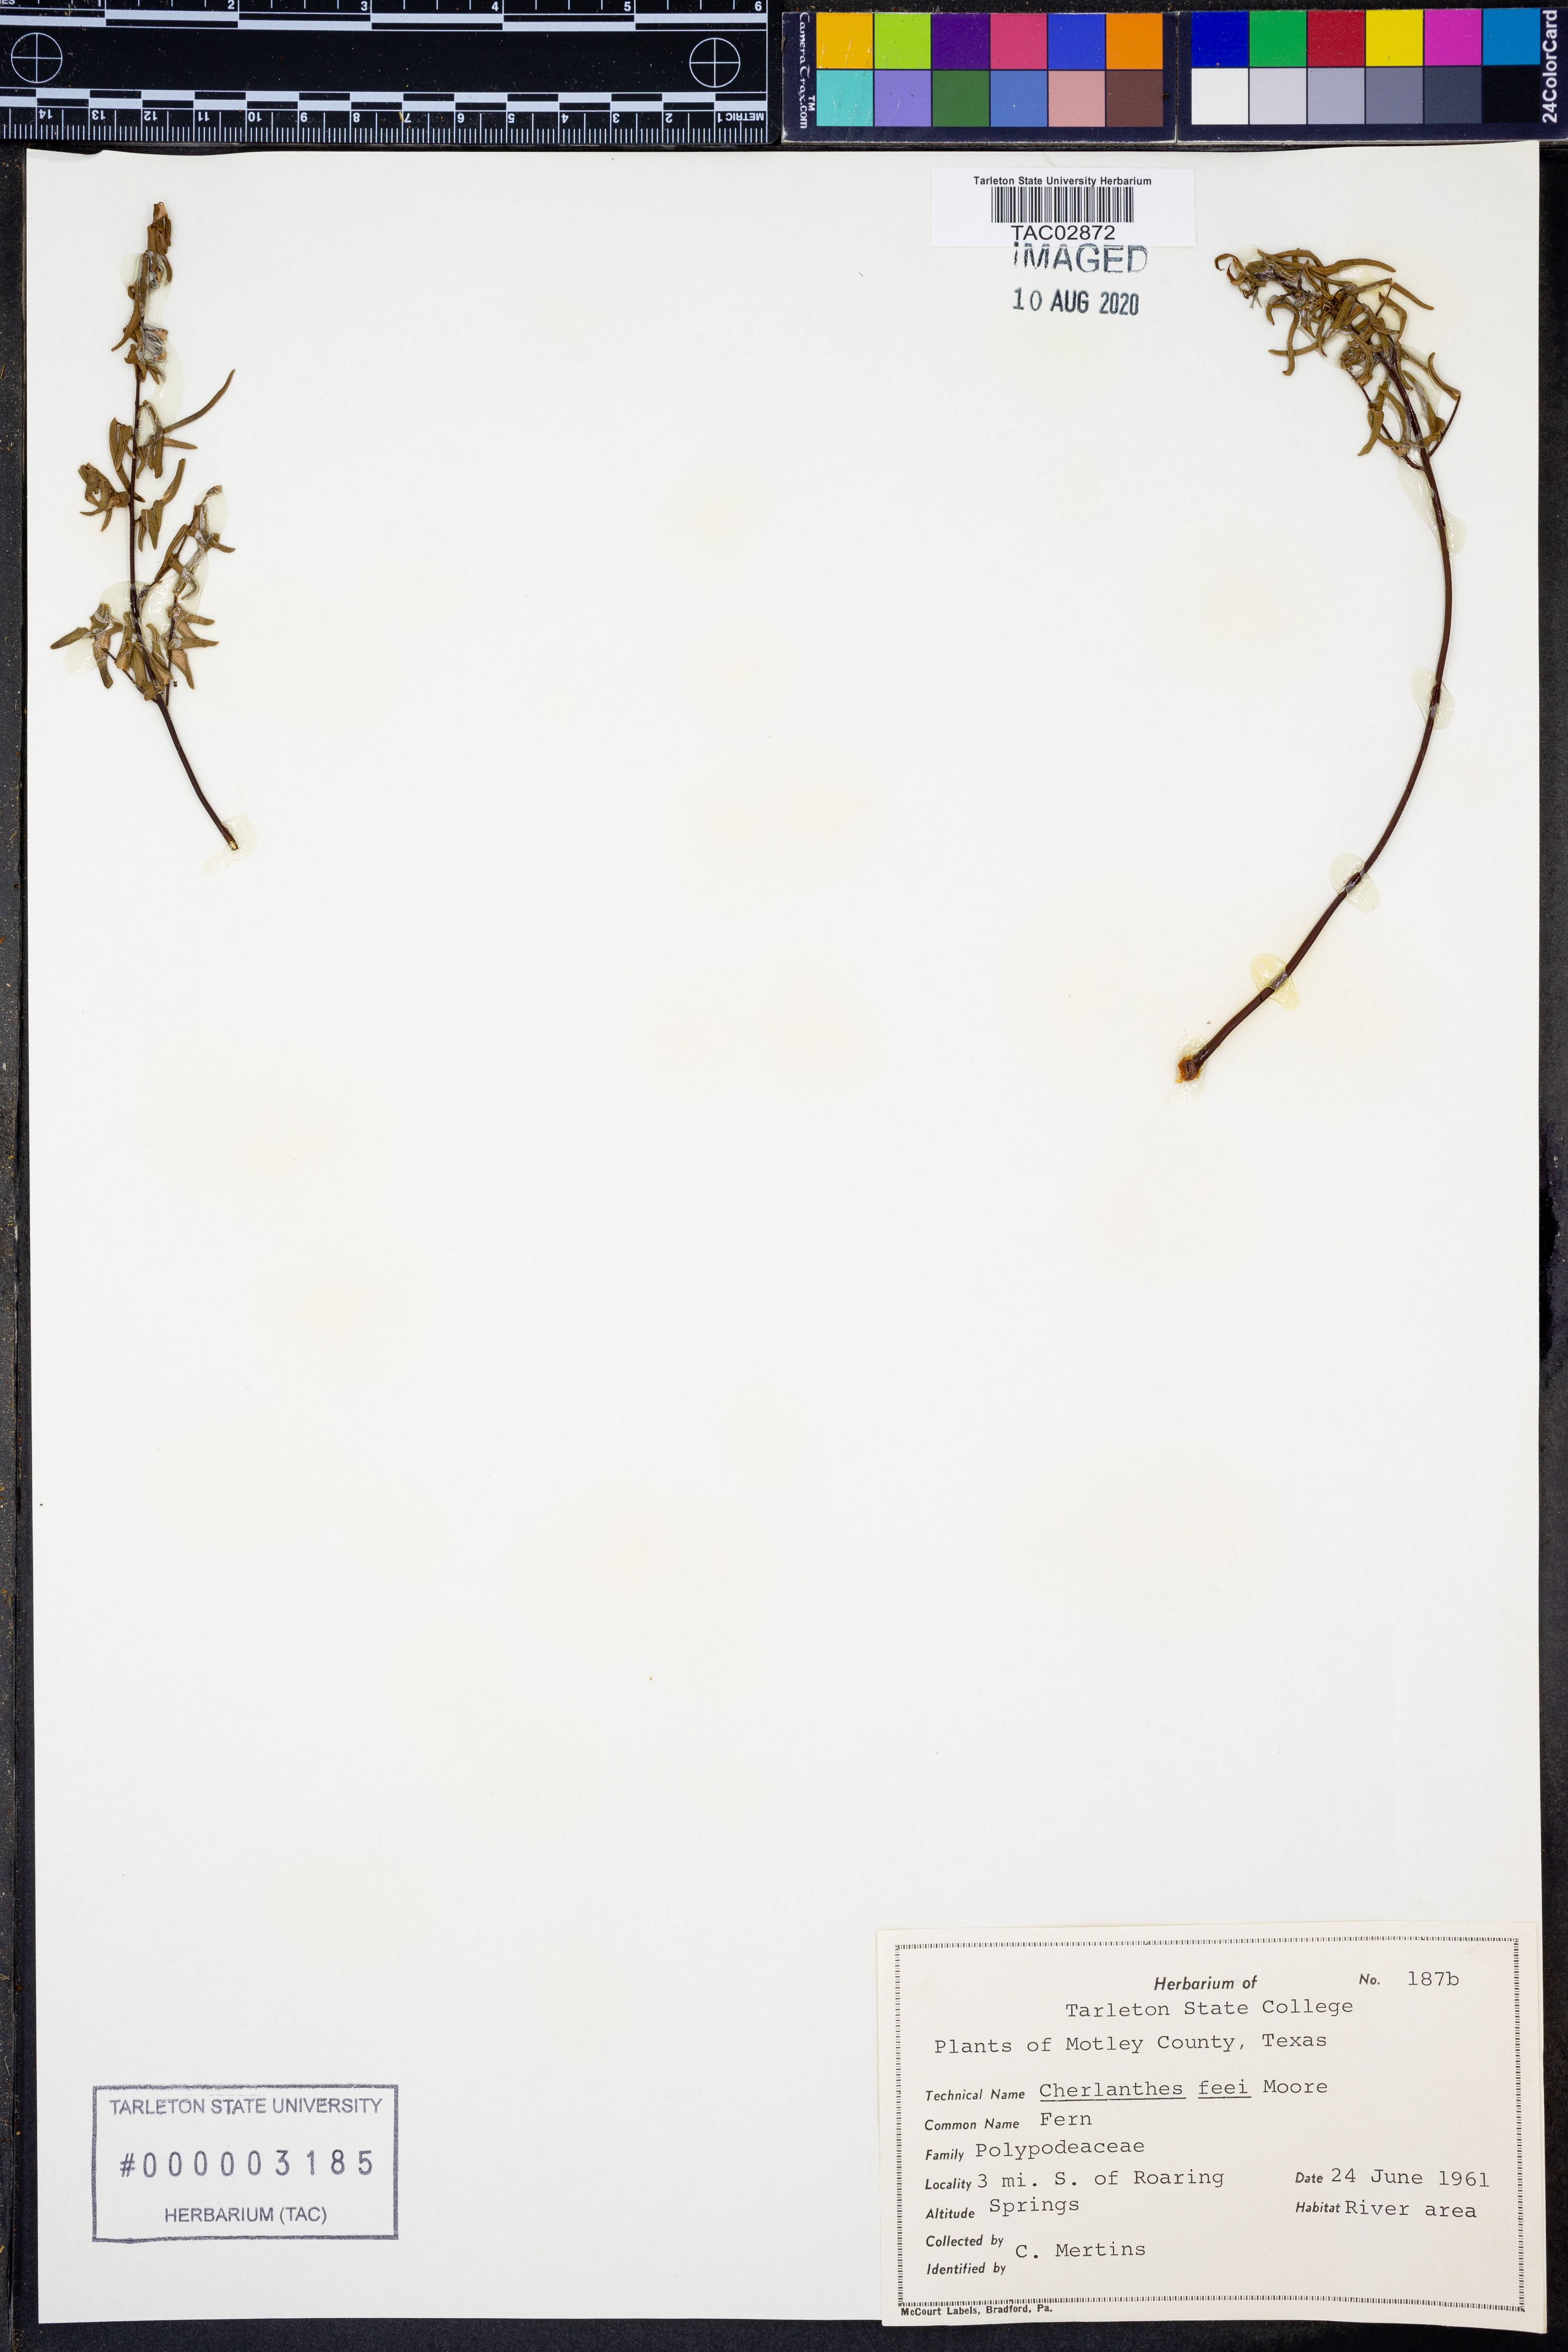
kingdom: Plantae
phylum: Tracheophyta
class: Polypodiopsida
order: Polypodiales
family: Pteridaceae
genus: Myriopteris
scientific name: Myriopteris gracilis
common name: Fee's lip fern
